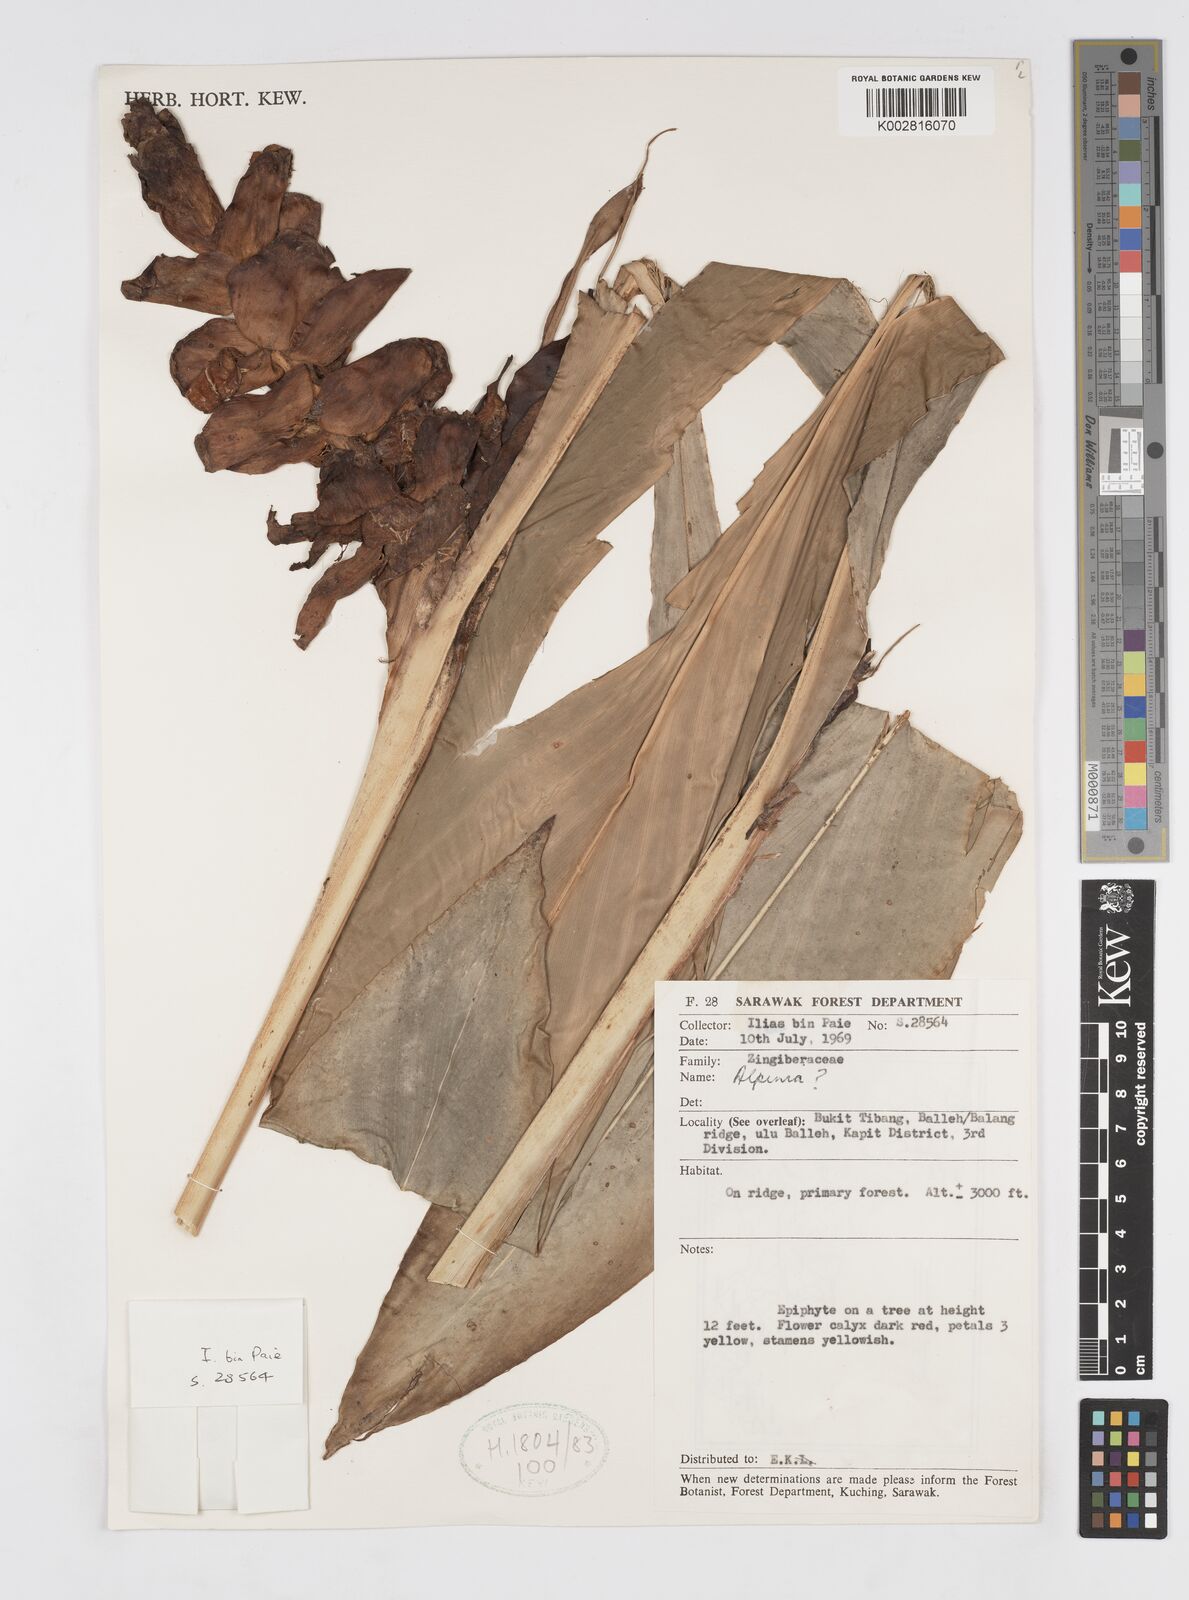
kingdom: Plantae
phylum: Tracheophyta
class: Liliopsida
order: Zingiberales
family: Zingiberaceae
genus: Alpinia
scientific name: Alpinia
